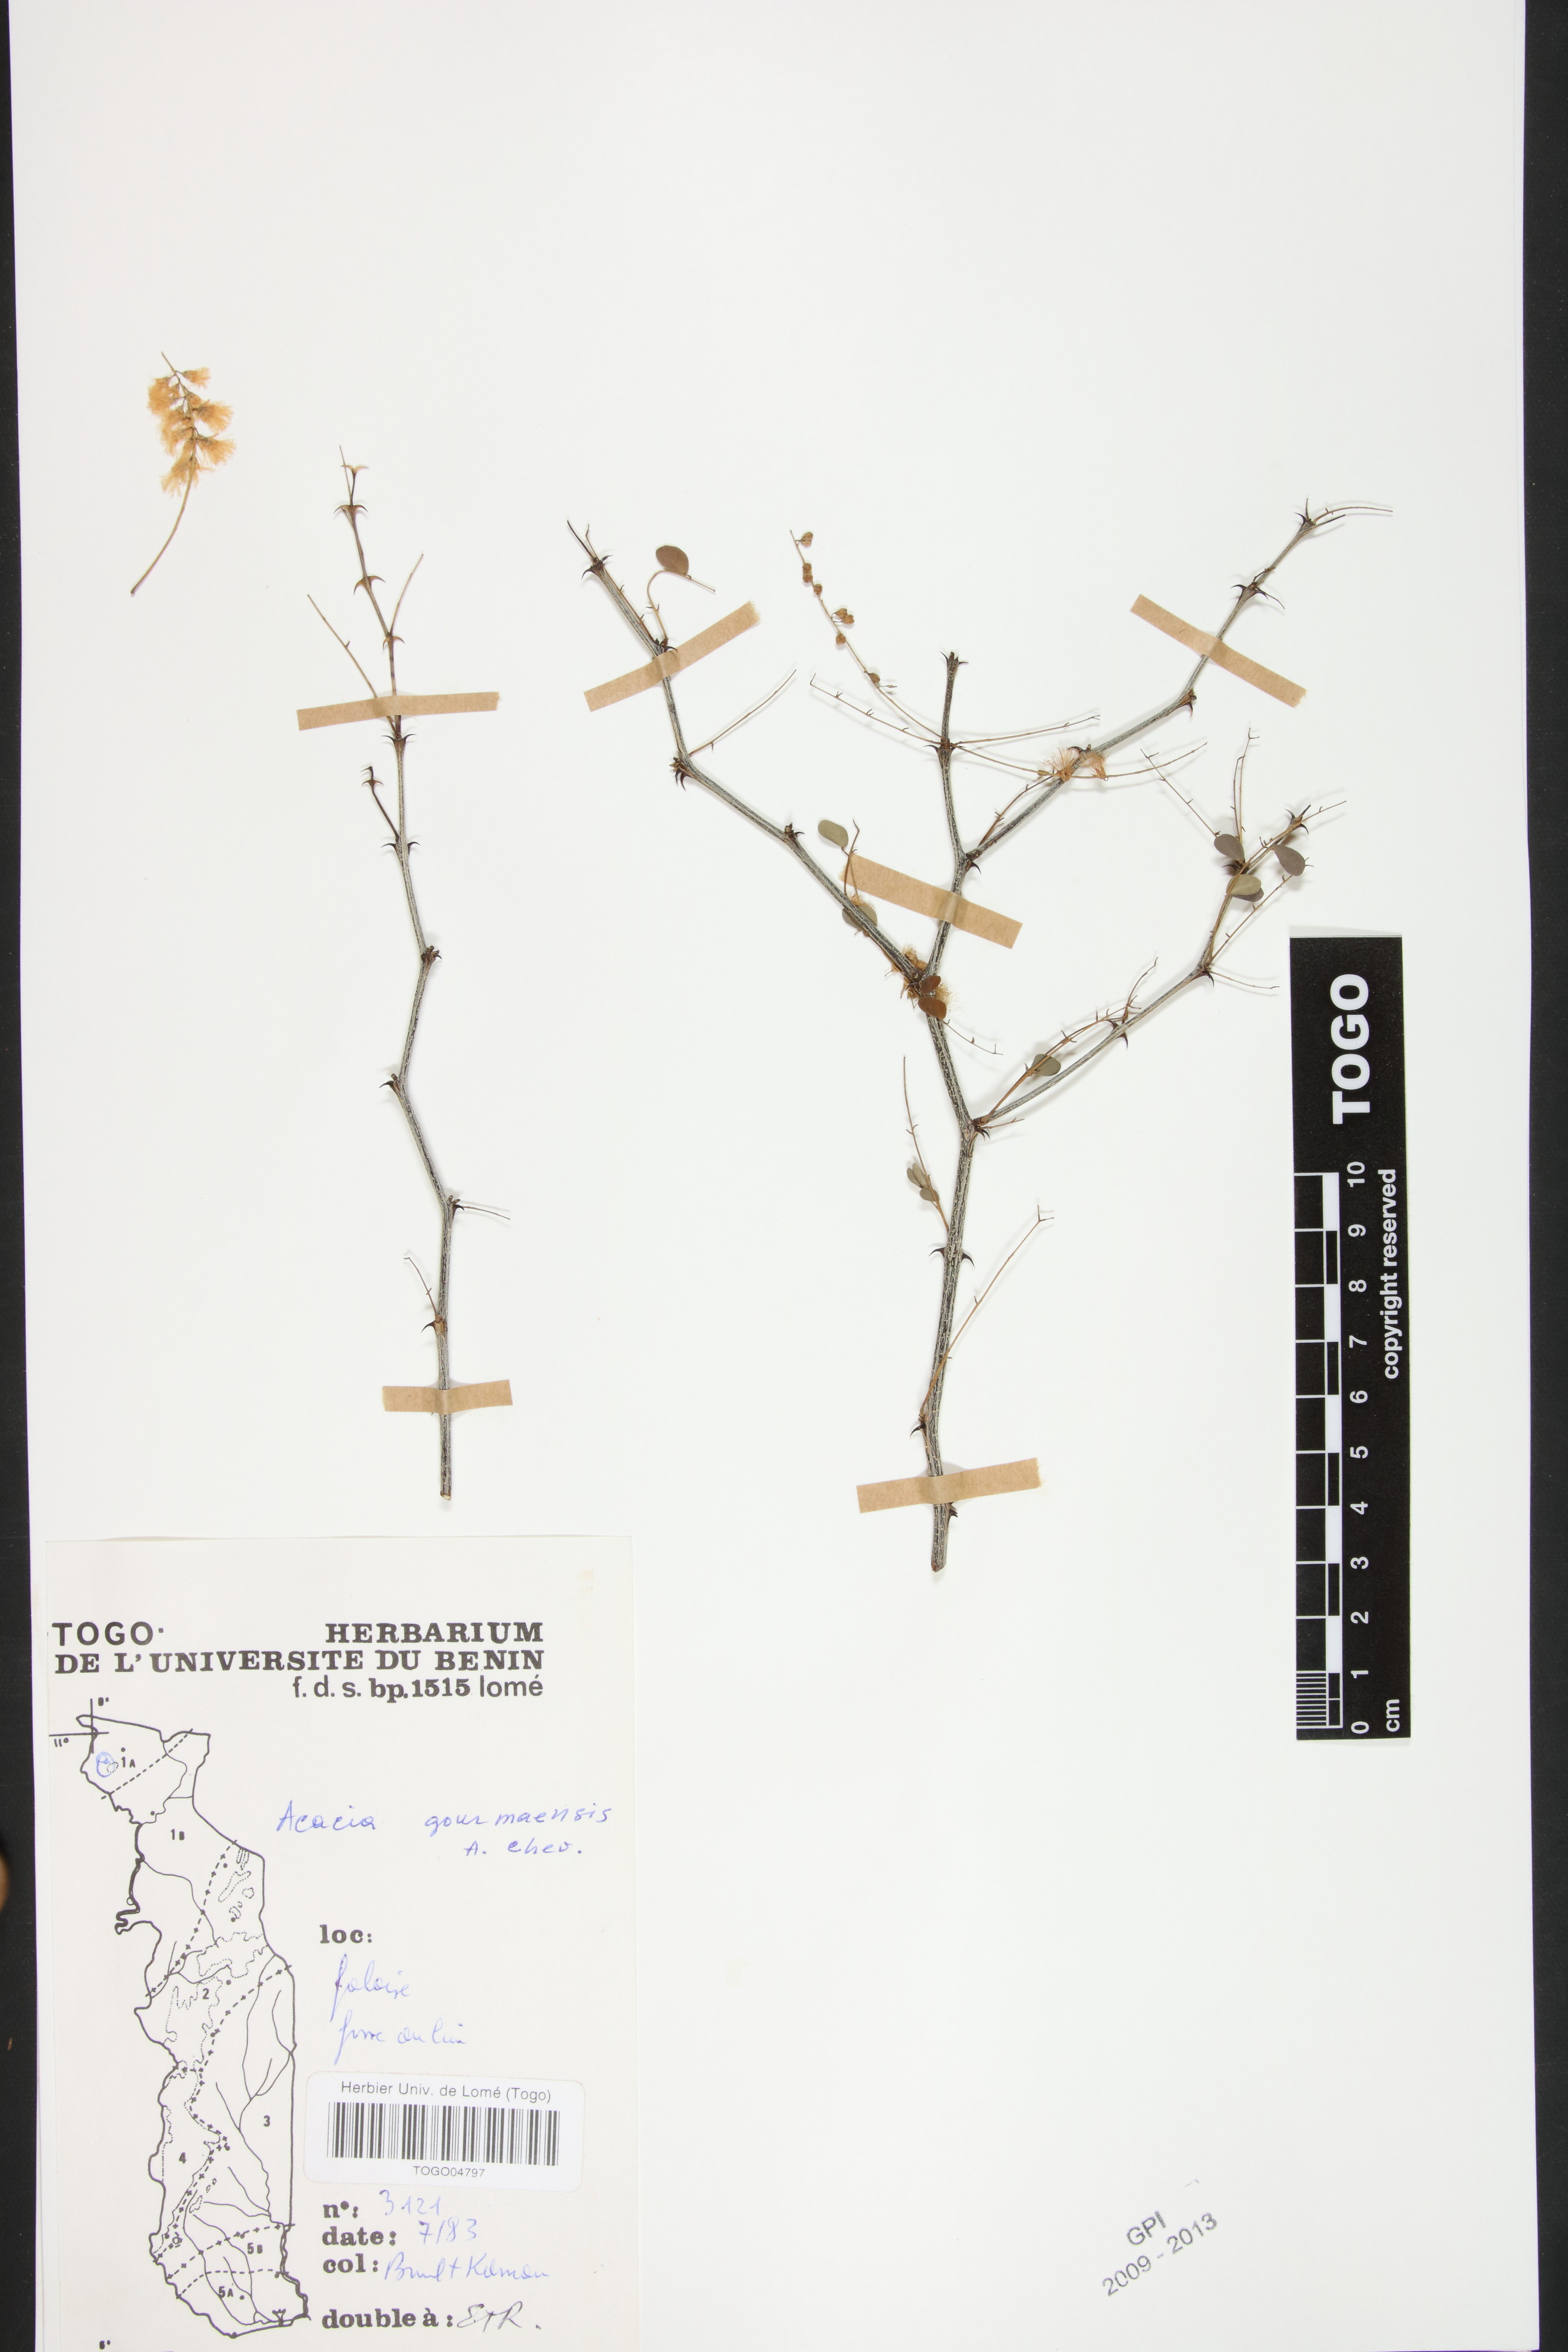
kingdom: Plantae
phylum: Tracheophyta
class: Magnoliopsida
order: Fabales
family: Fabaceae
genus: Senegalia
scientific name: Senegalia gourmaensis
